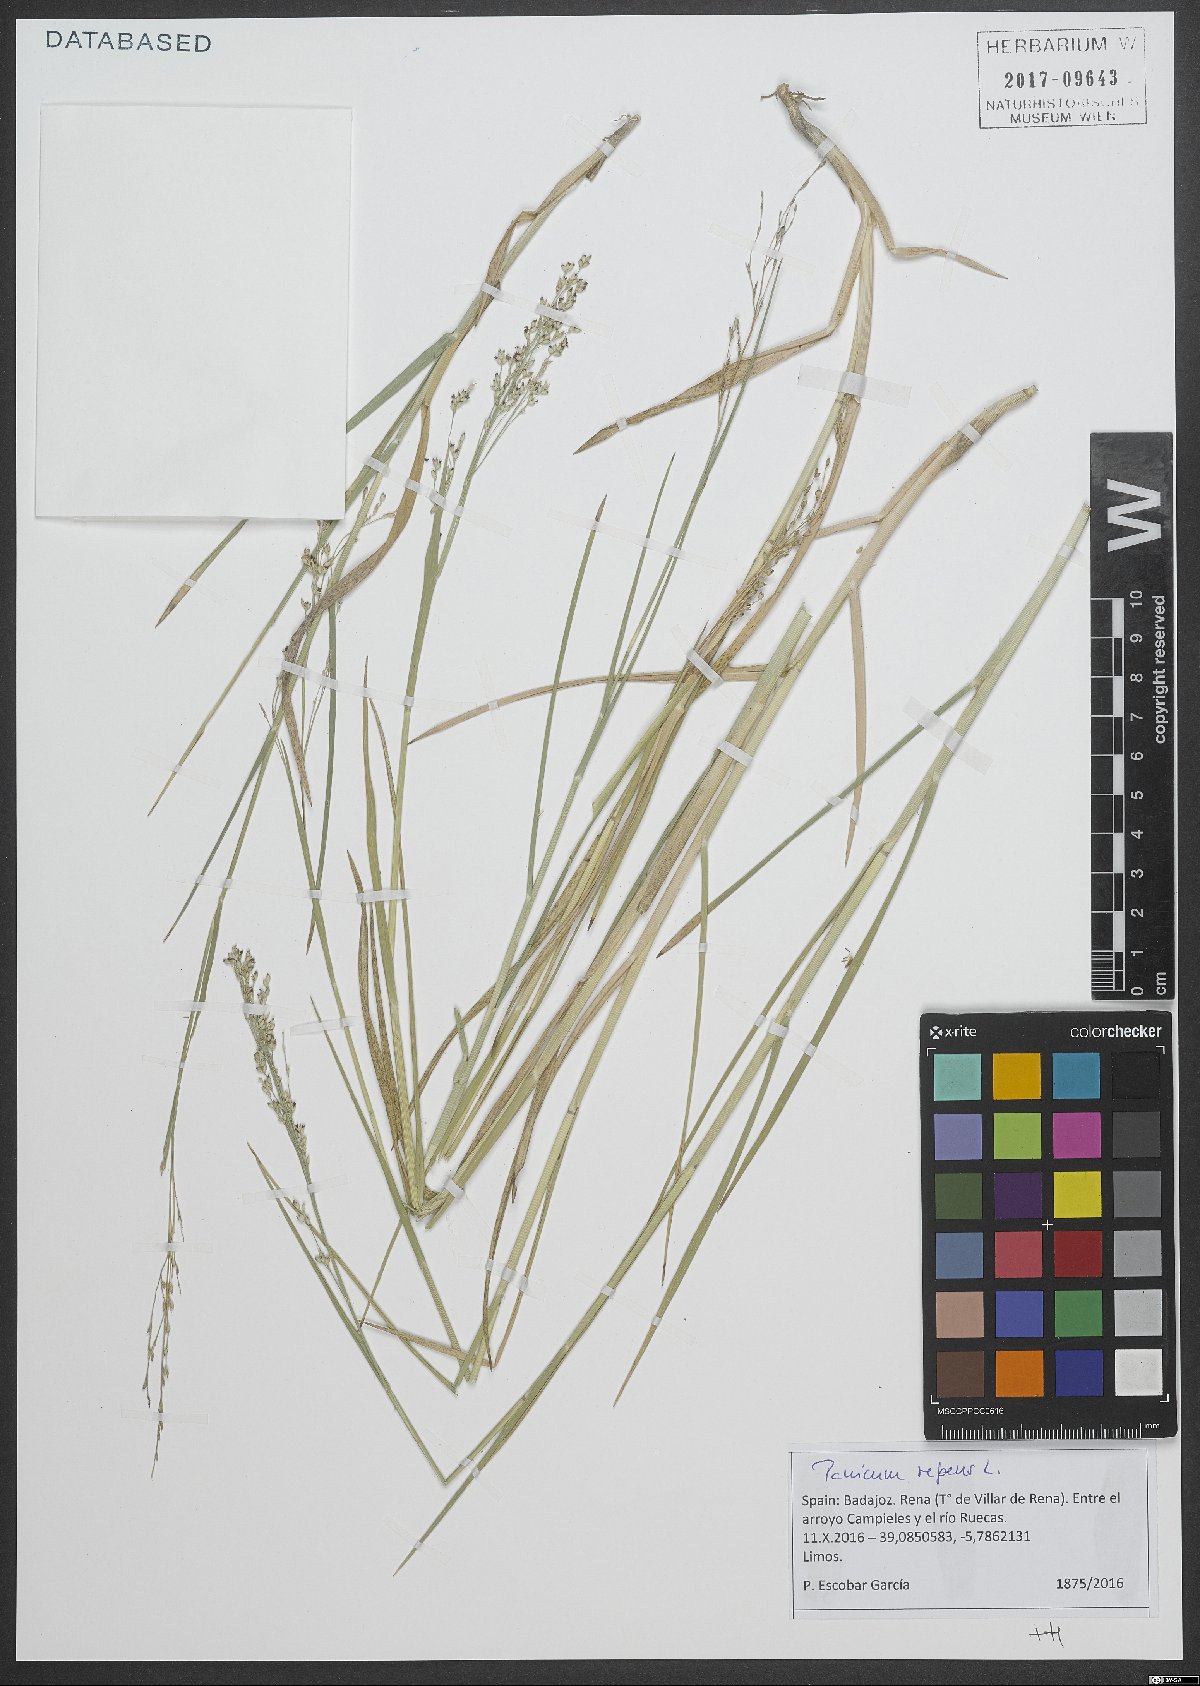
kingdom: Plantae
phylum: Tracheophyta
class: Liliopsida
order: Poales
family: Poaceae
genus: Panicum
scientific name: Panicum repens
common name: Torpedo grass
